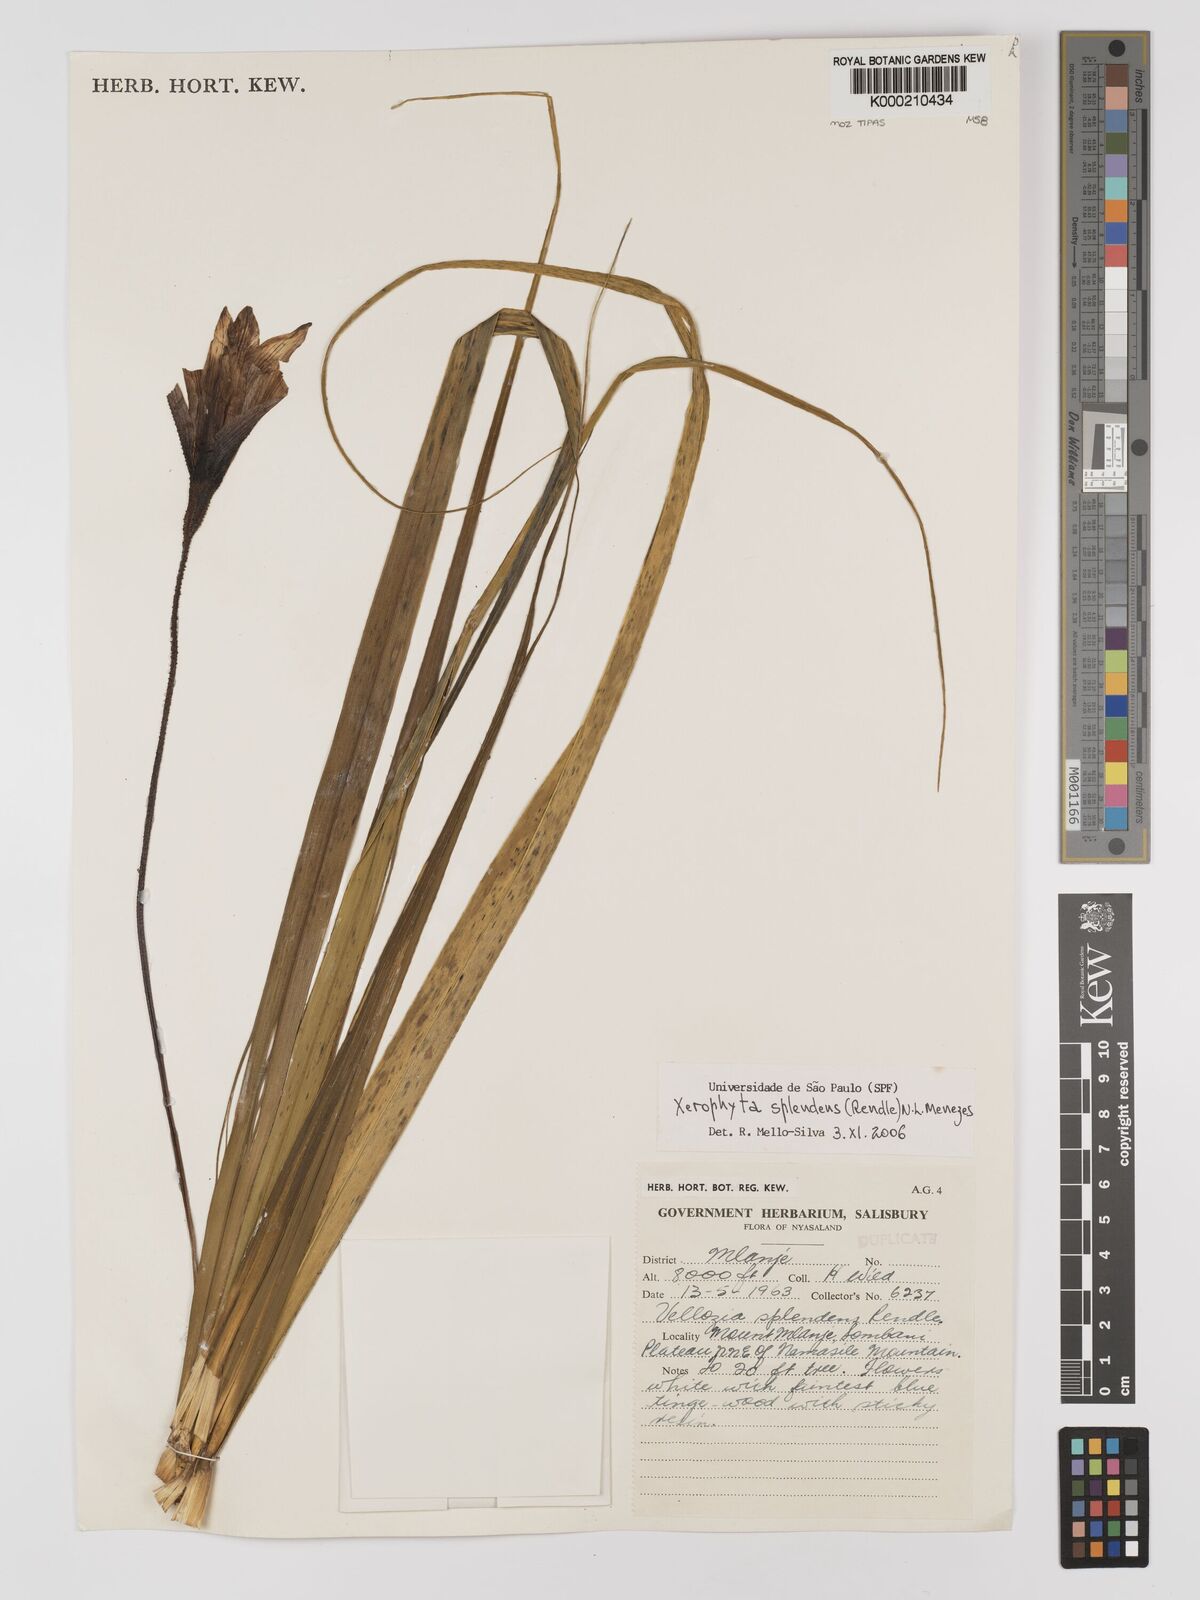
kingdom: Plantae
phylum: Tracheophyta
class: Liliopsida
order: Pandanales
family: Velloziaceae
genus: Xerophyta
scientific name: Xerophyta splendens
